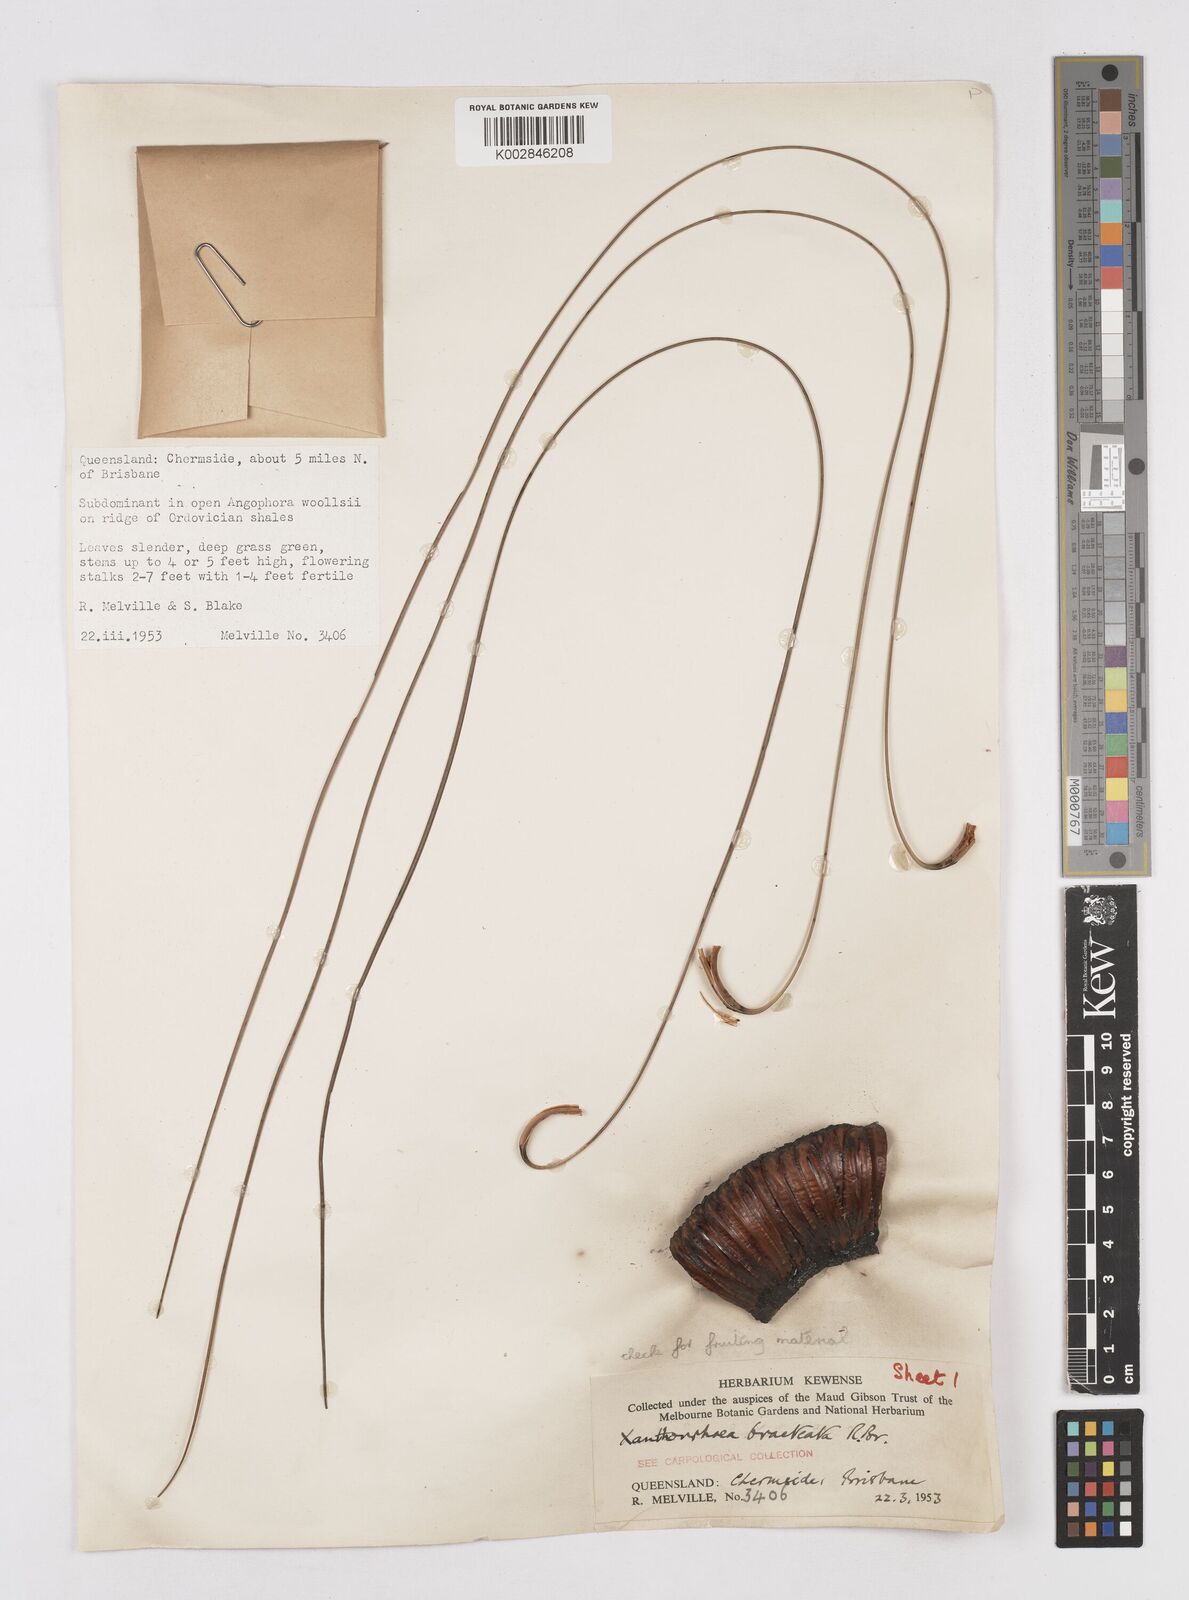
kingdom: Plantae
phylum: Tracheophyta
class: Liliopsida
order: Asparagales
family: Asphodelaceae
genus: Xanthorrhoea
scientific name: Xanthorrhoea bracteata
